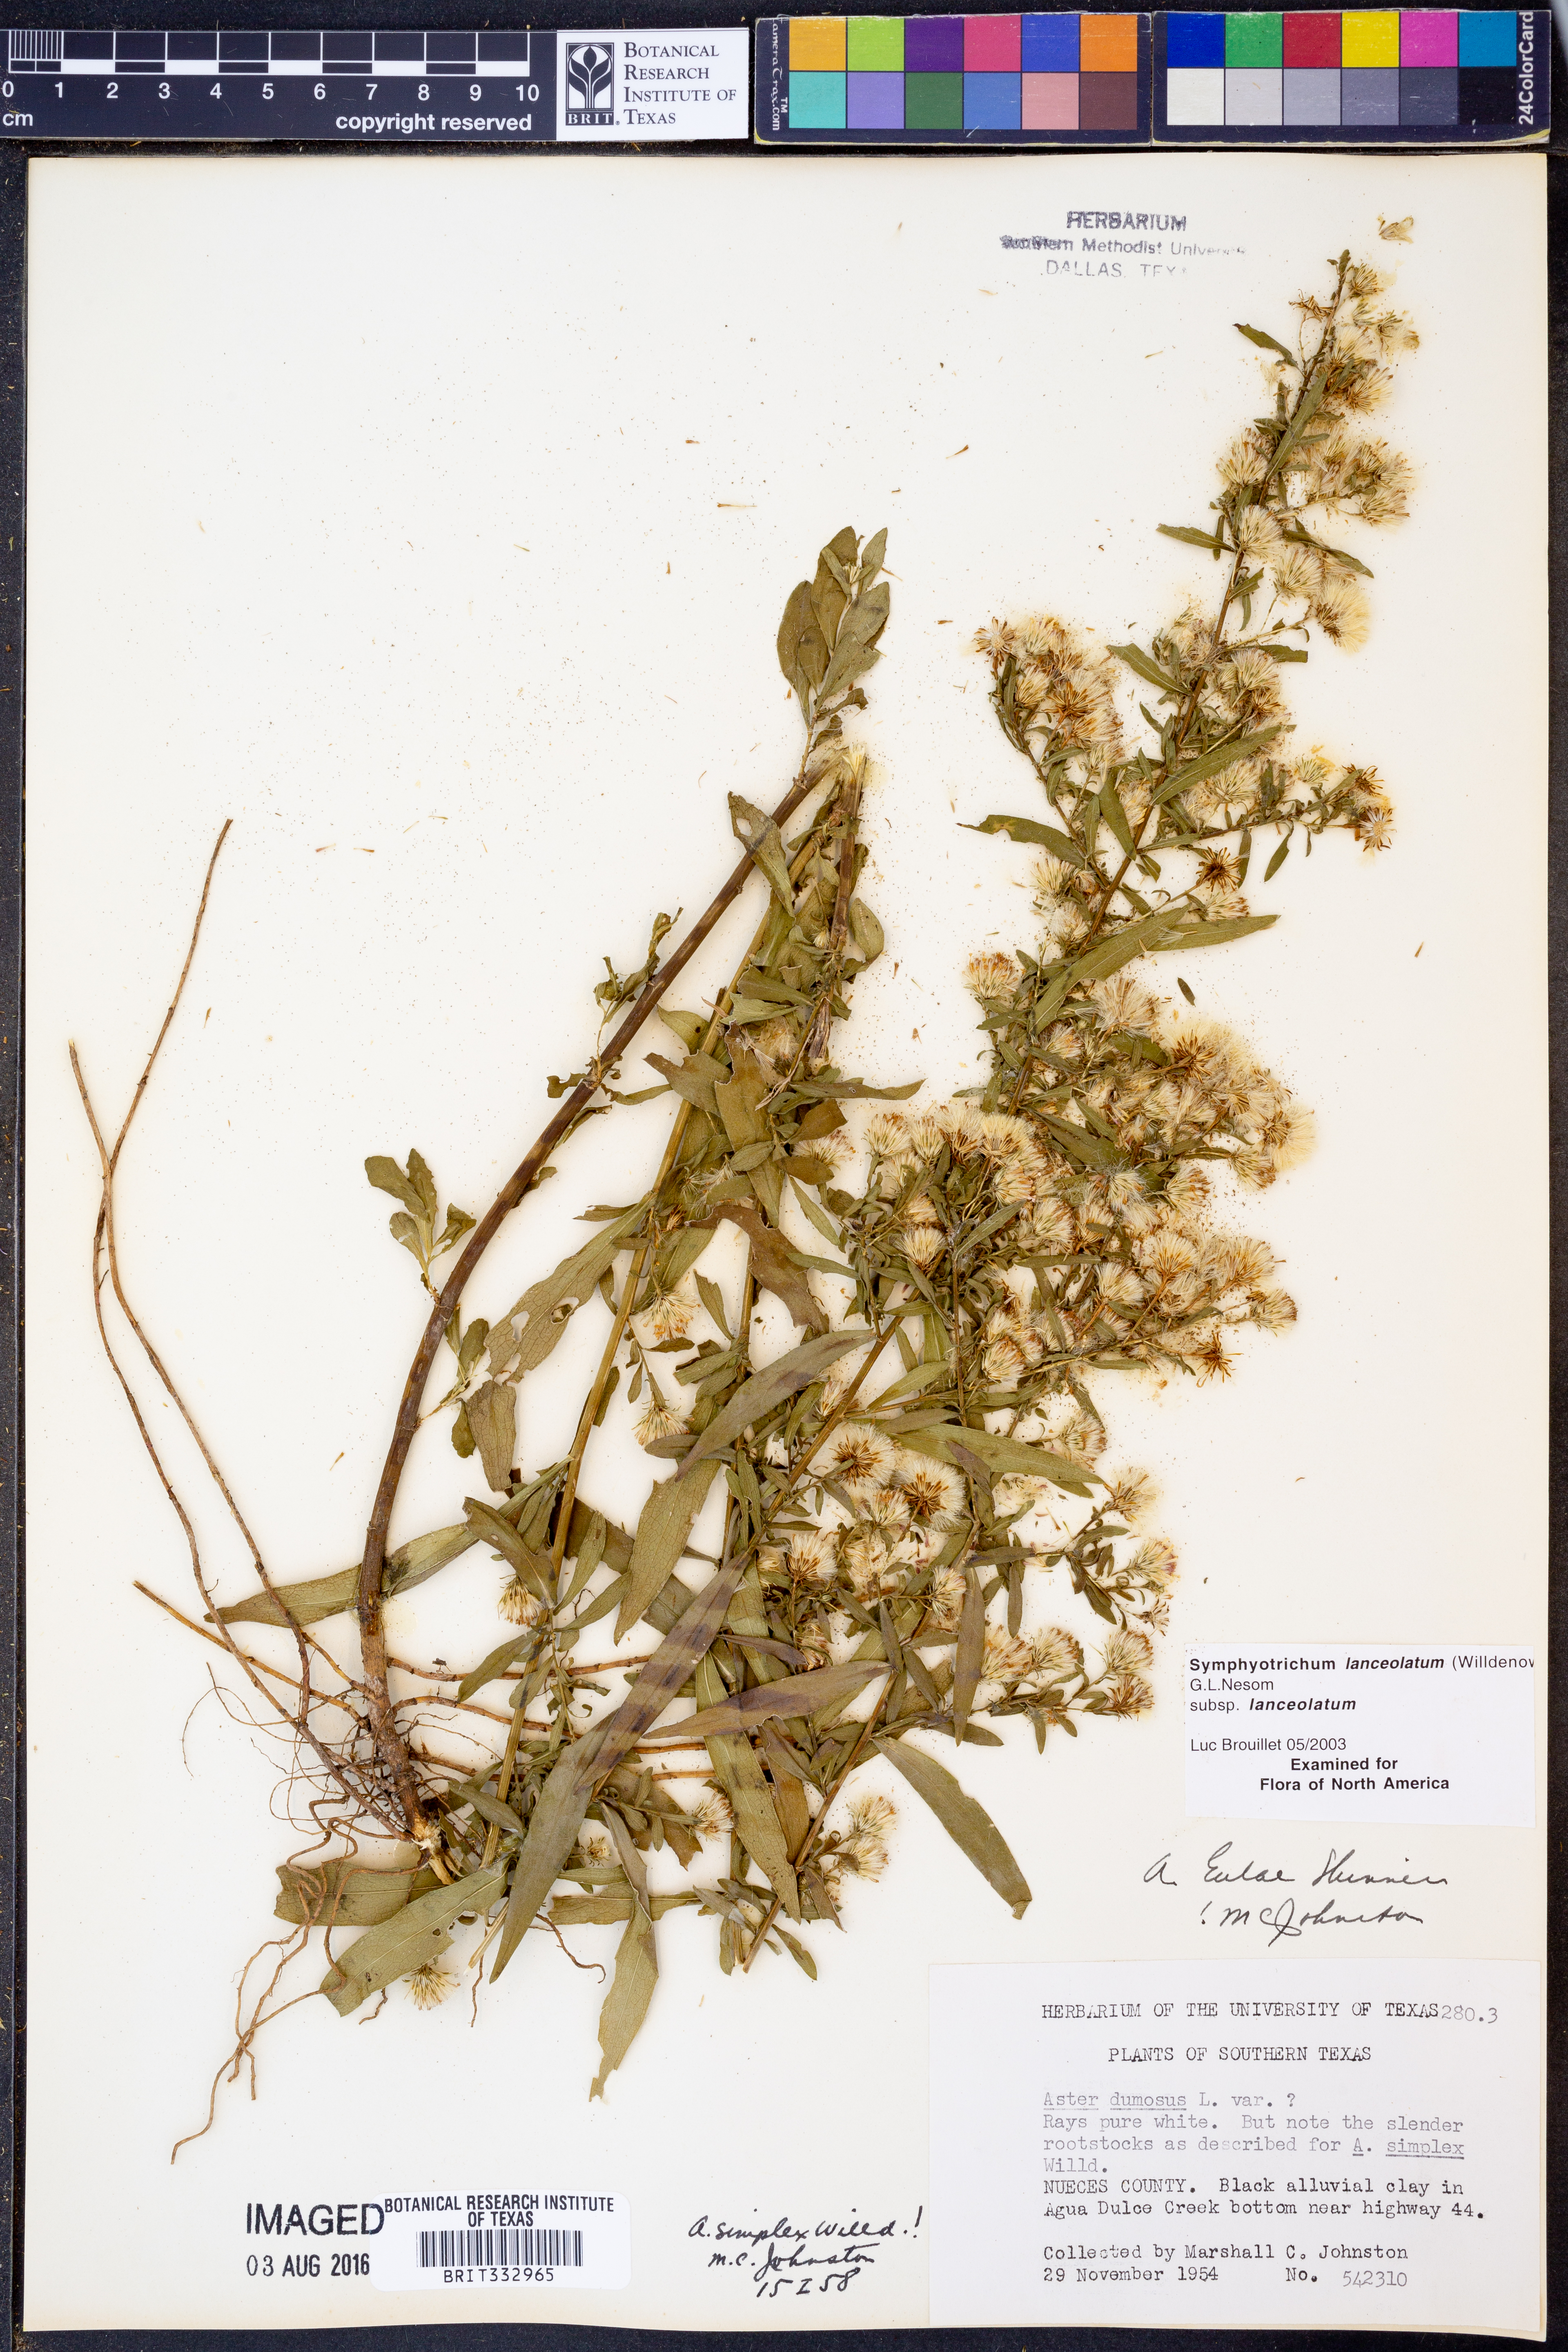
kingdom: Plantae
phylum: Tracheophyta
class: Magnoliopsida
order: Asterales
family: Asteraceae
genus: Symphyotrichum
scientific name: Symphyotrichum lanceolatum
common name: Panicled aster
